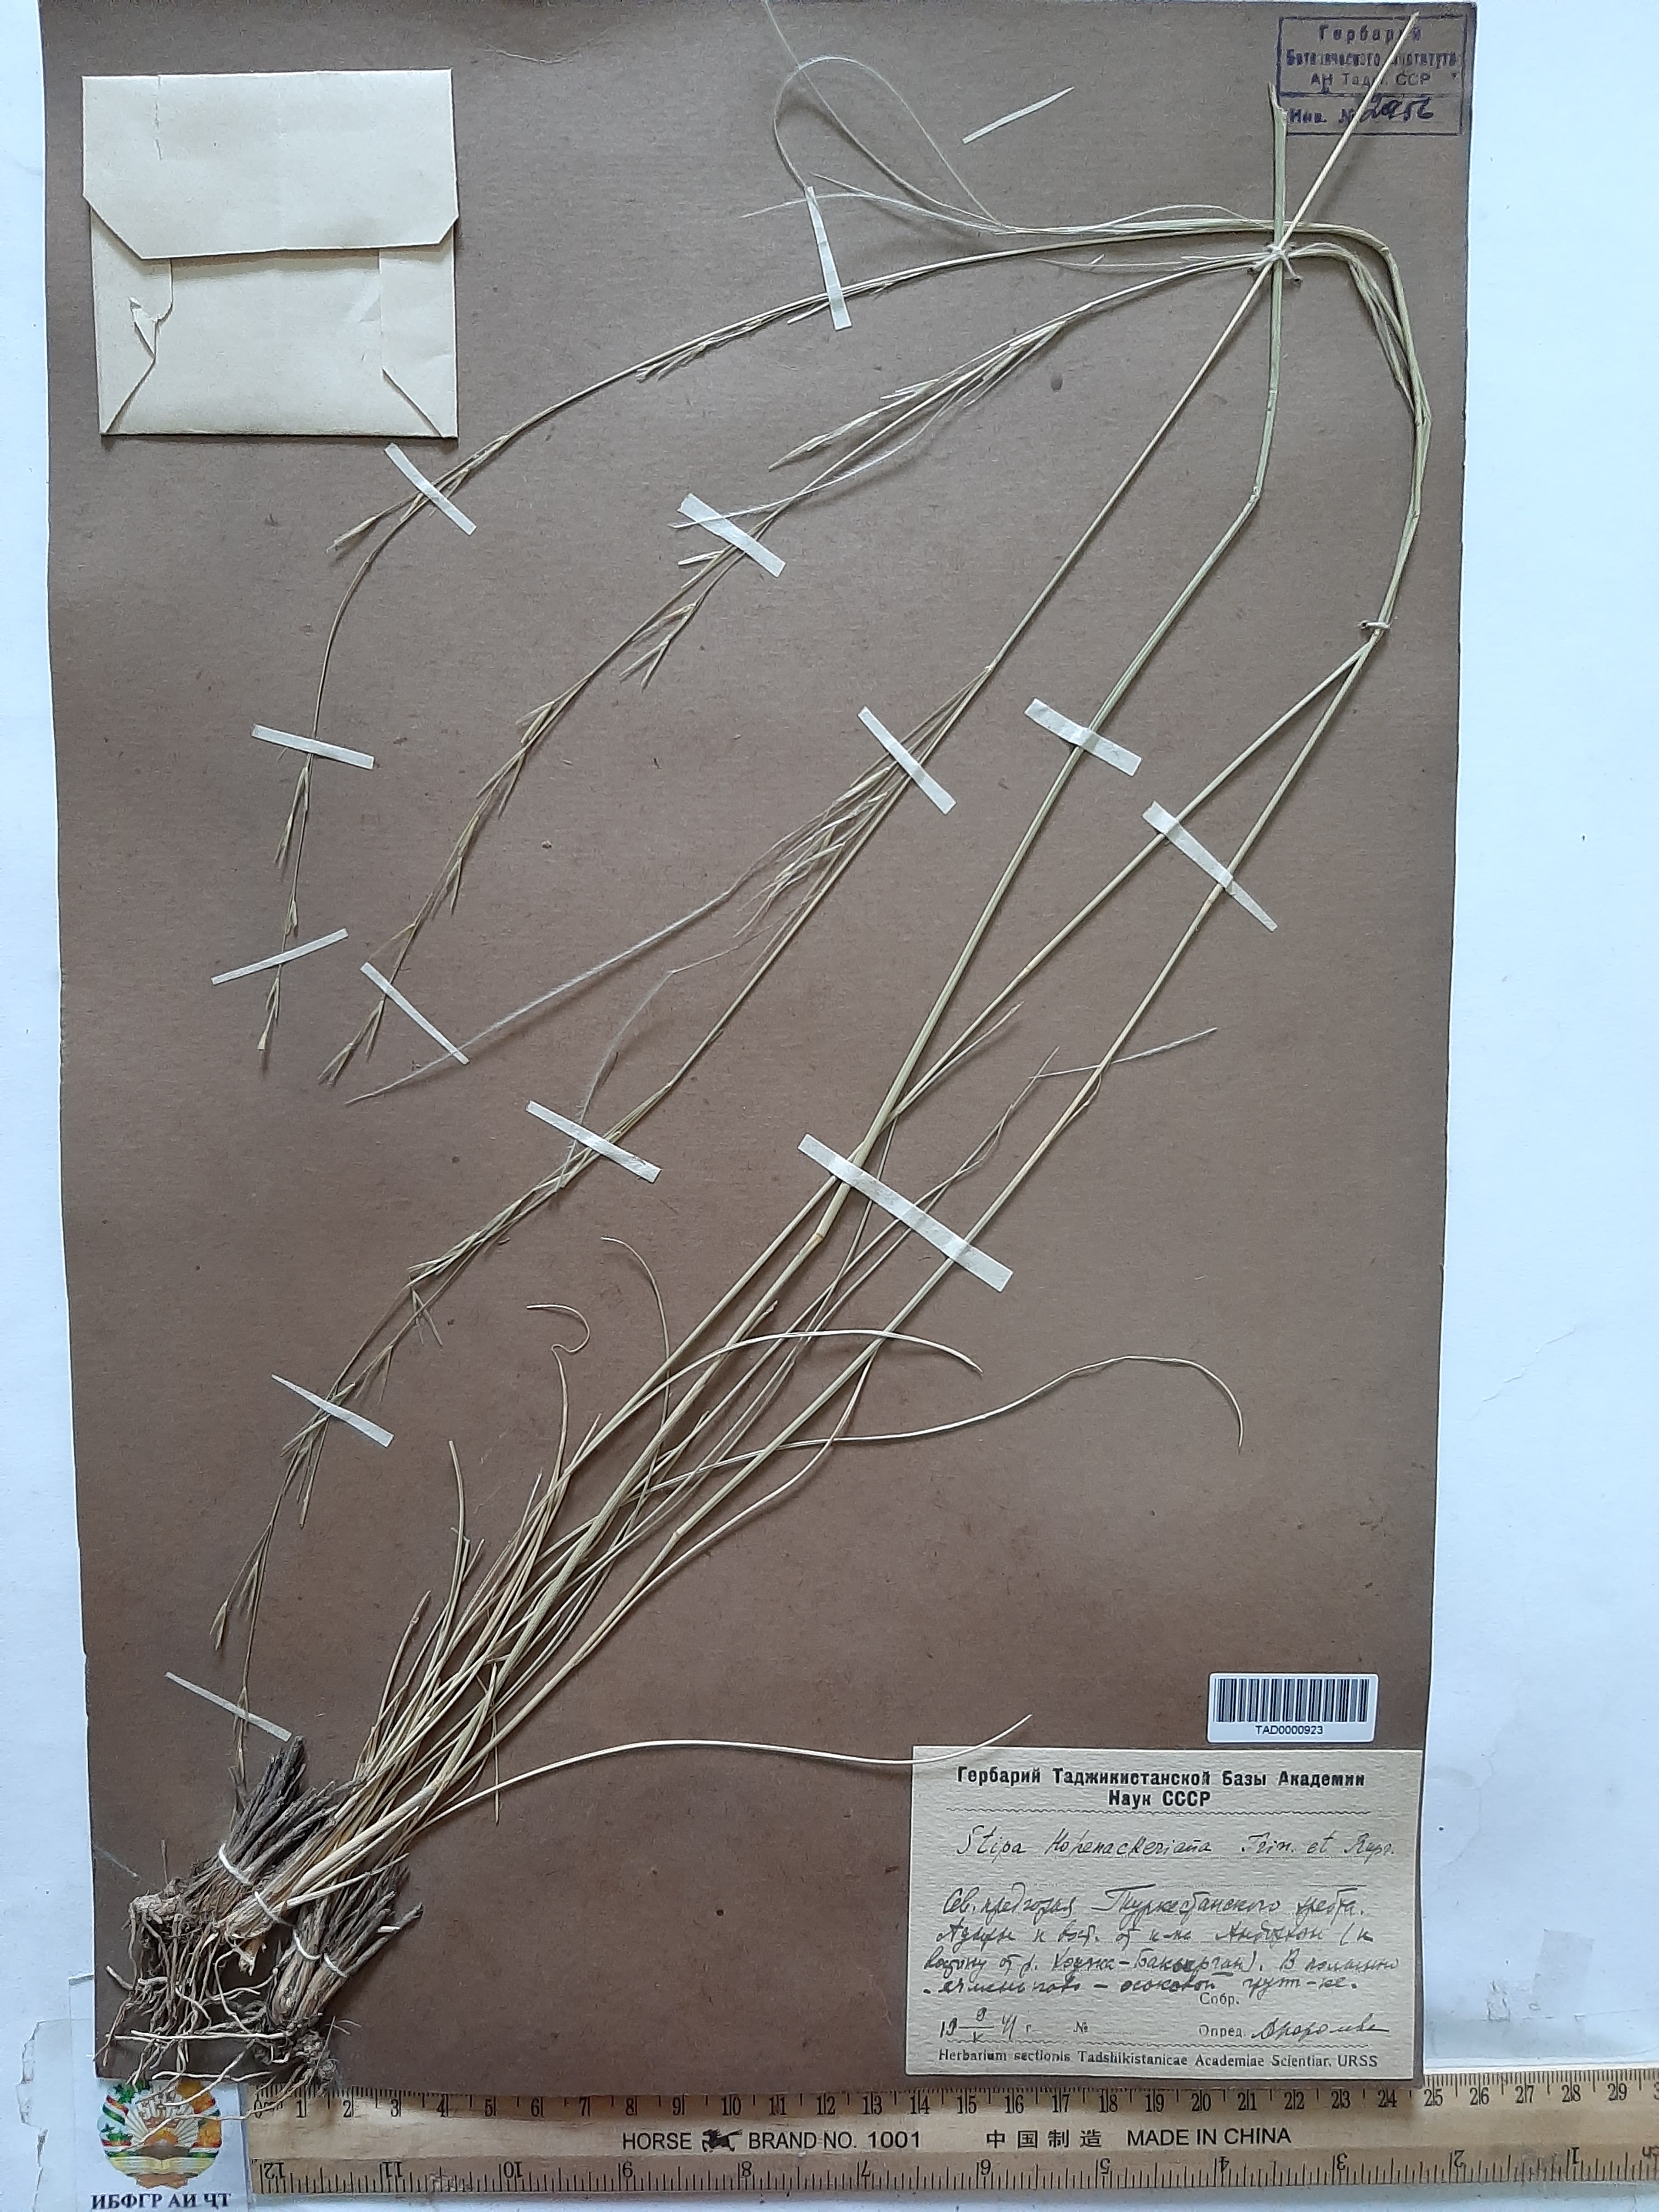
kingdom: Plantae
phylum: Tracheophyta
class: Liliopsida
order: Poales
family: Poaceae
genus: Stipa
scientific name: Stipa hohenackeriana
